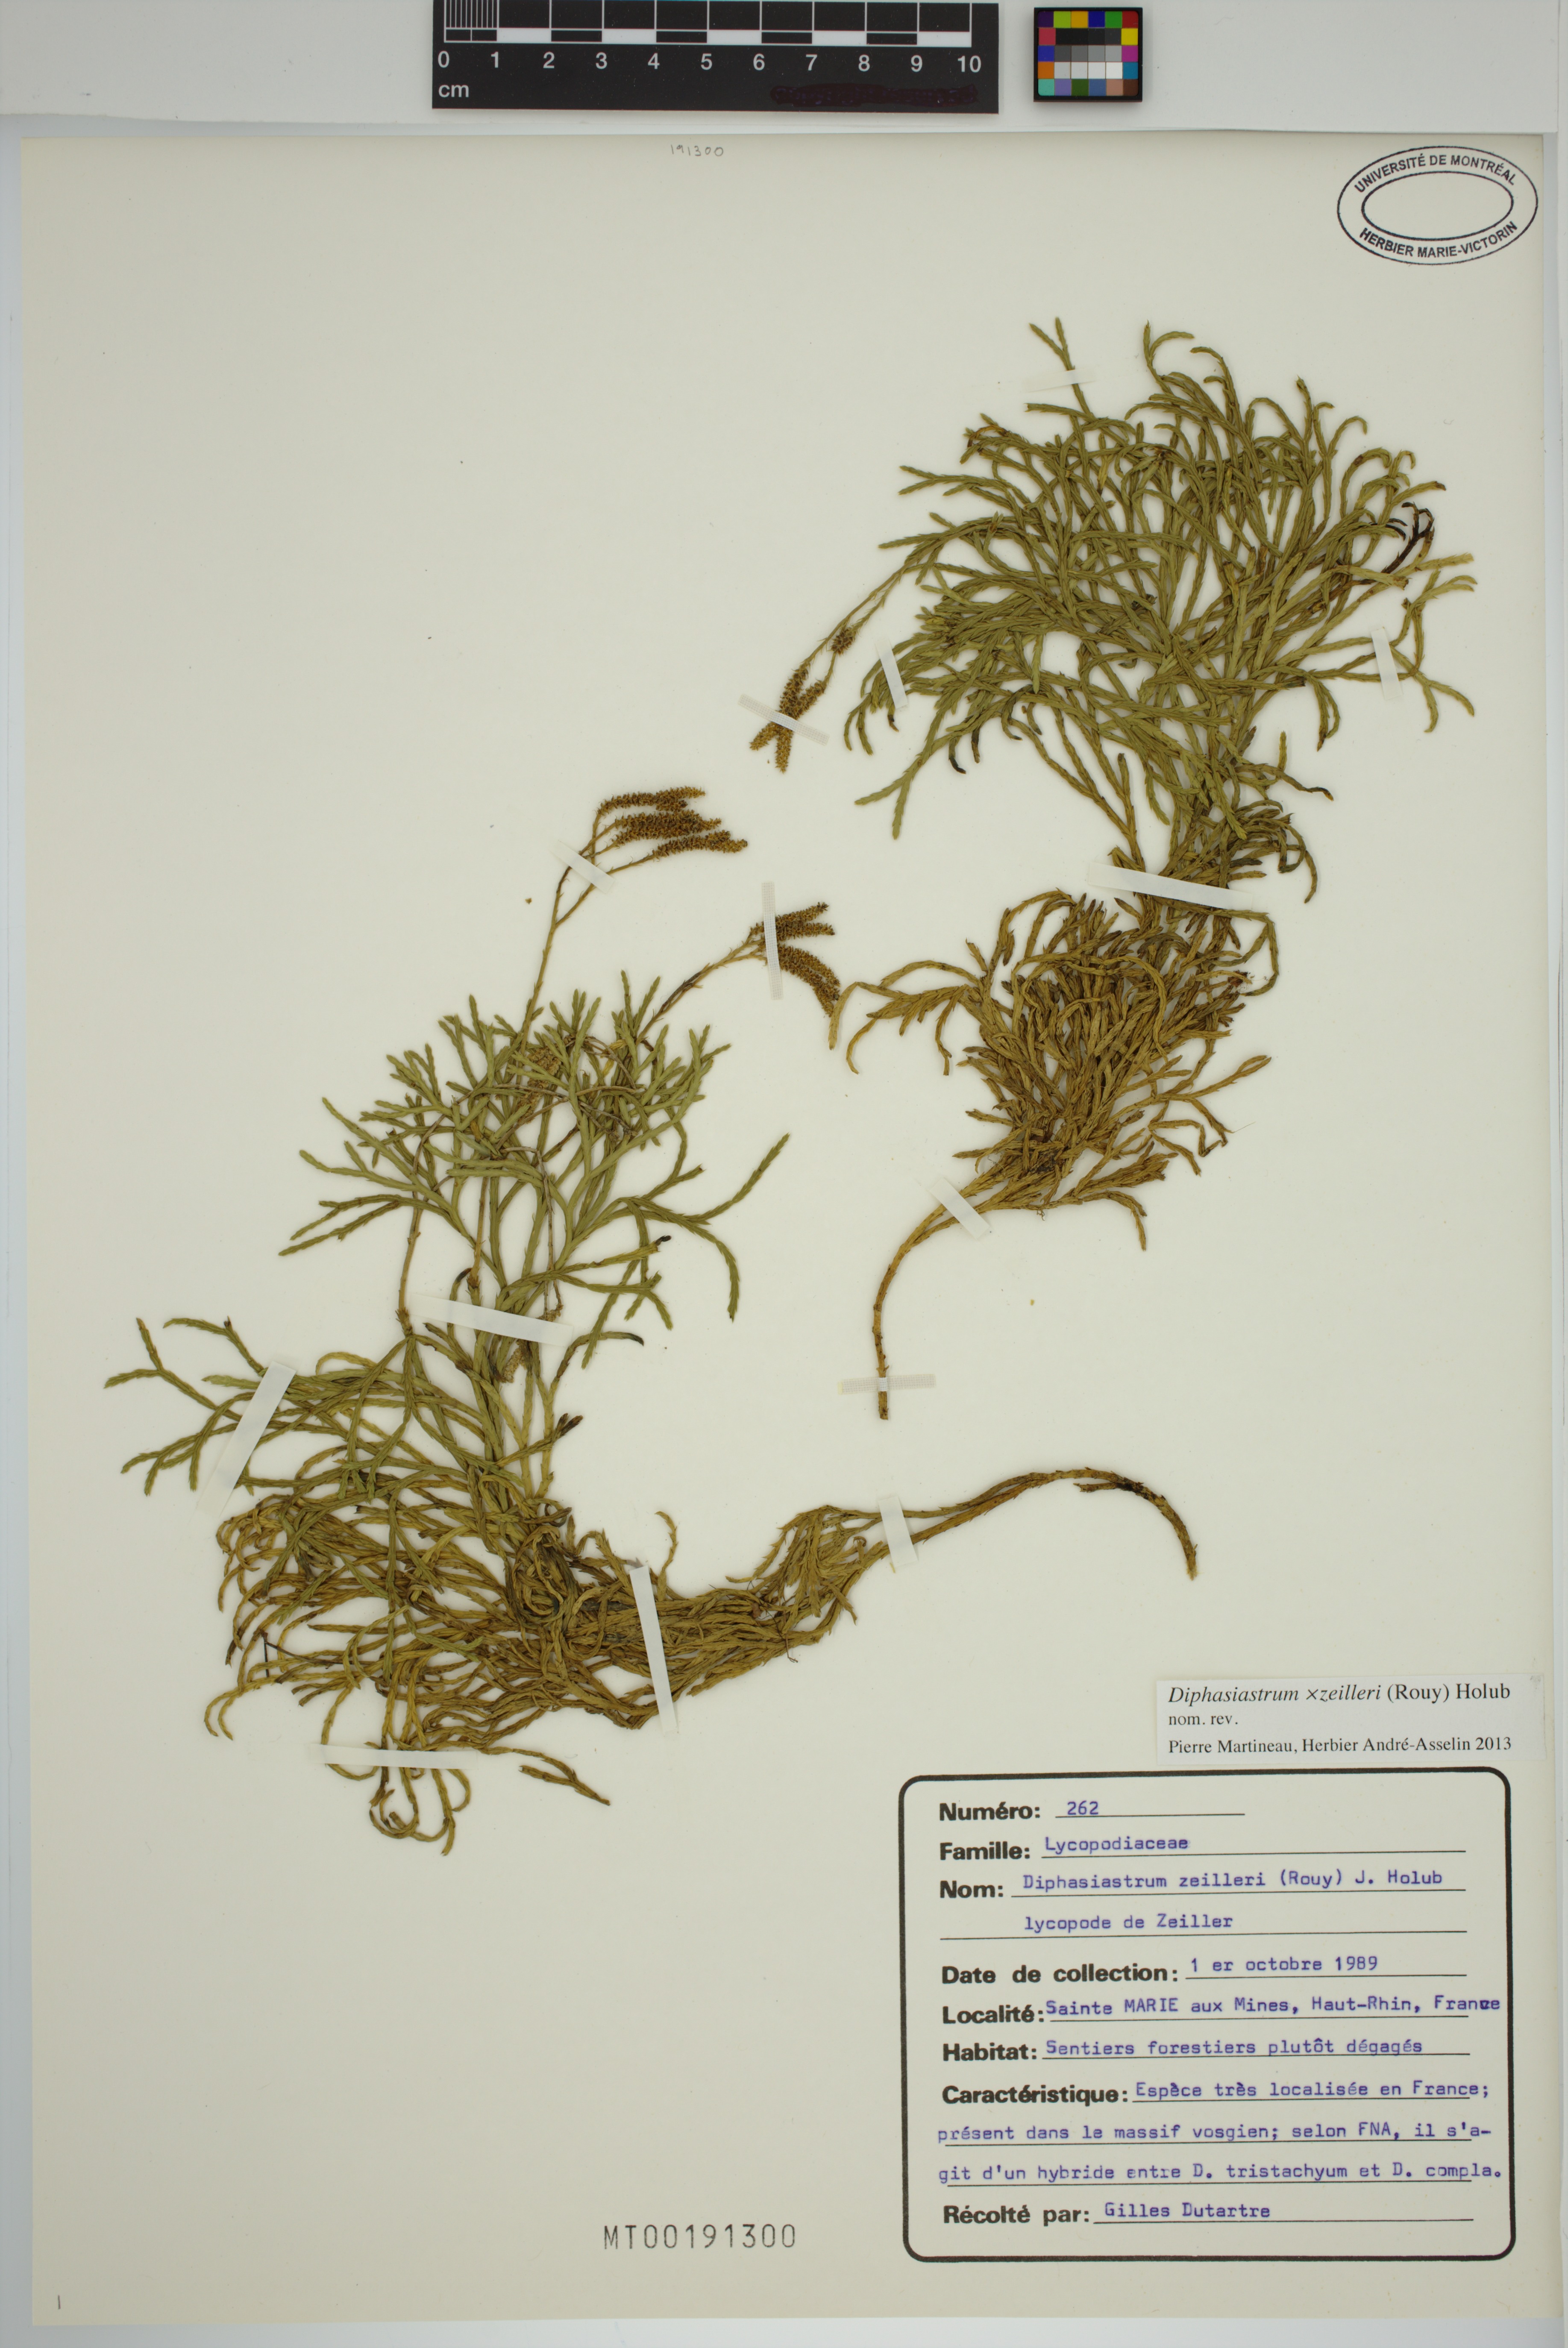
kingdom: Plantae
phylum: Tracheophyta
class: Lycopodiopsida
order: Lycopodiales
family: Lycopodiaceae
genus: Diphasiastrum
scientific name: Diphasiastrum zeilleri
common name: Zeiller's clubmoss
